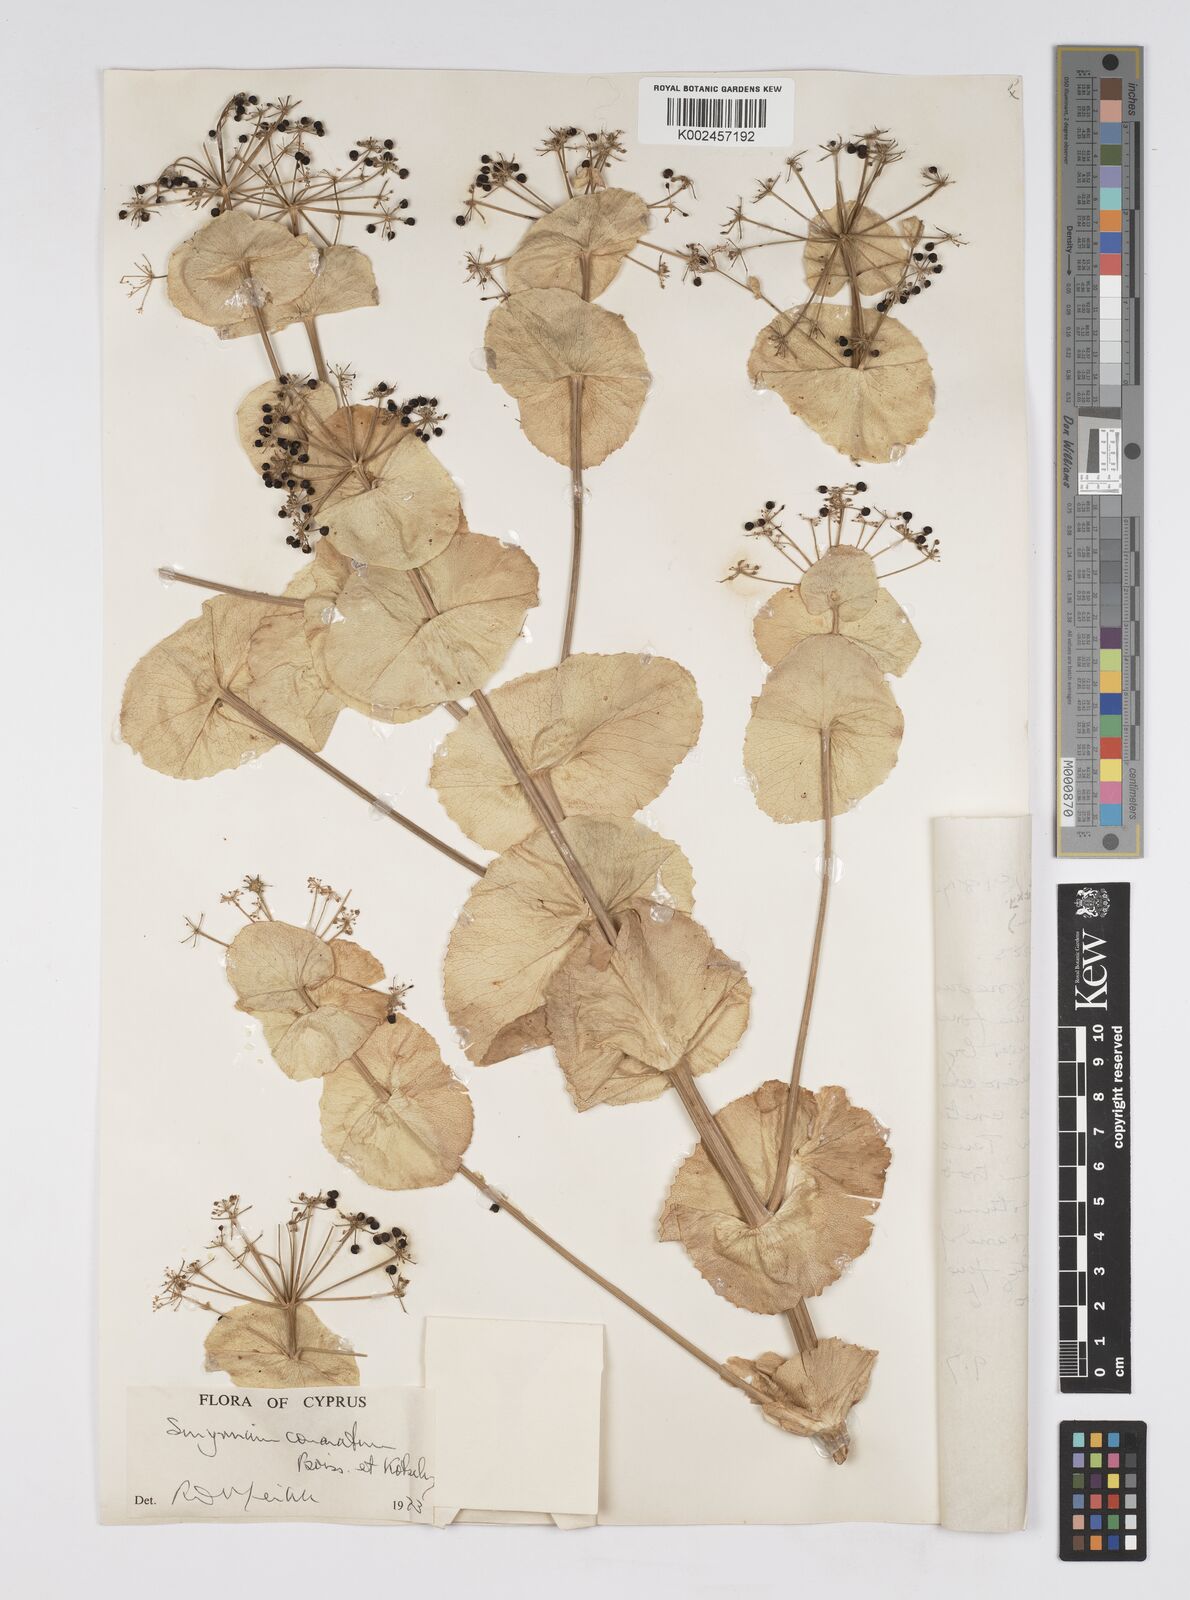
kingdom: Plantae
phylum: Tracheophyta
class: Magnoliopsida
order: Apiales
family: Apiaceae
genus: Smyrnium
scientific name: Smyrnium connatum
